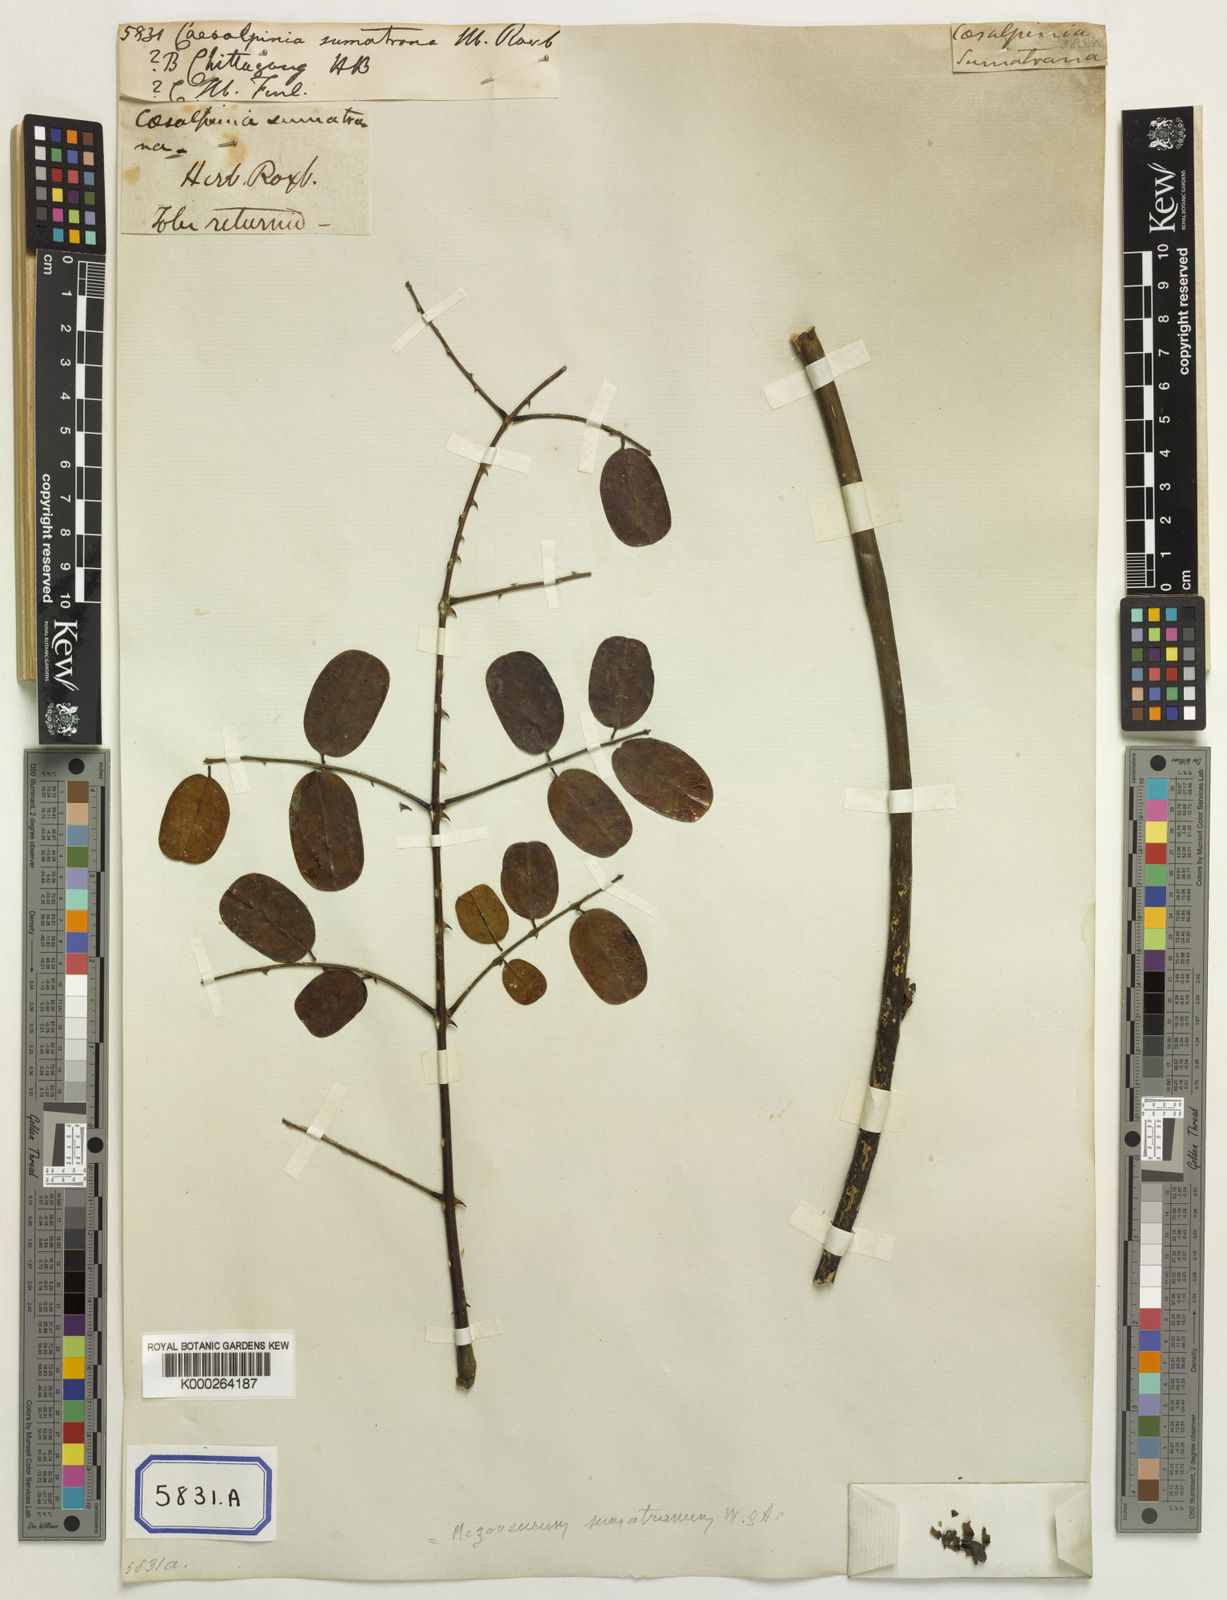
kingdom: Plantae
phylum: Tracheophyta
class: Magnoliopsida
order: Fabales
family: Fabaceae
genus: Mezoneuron
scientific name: Mezoneuron sumatranum
